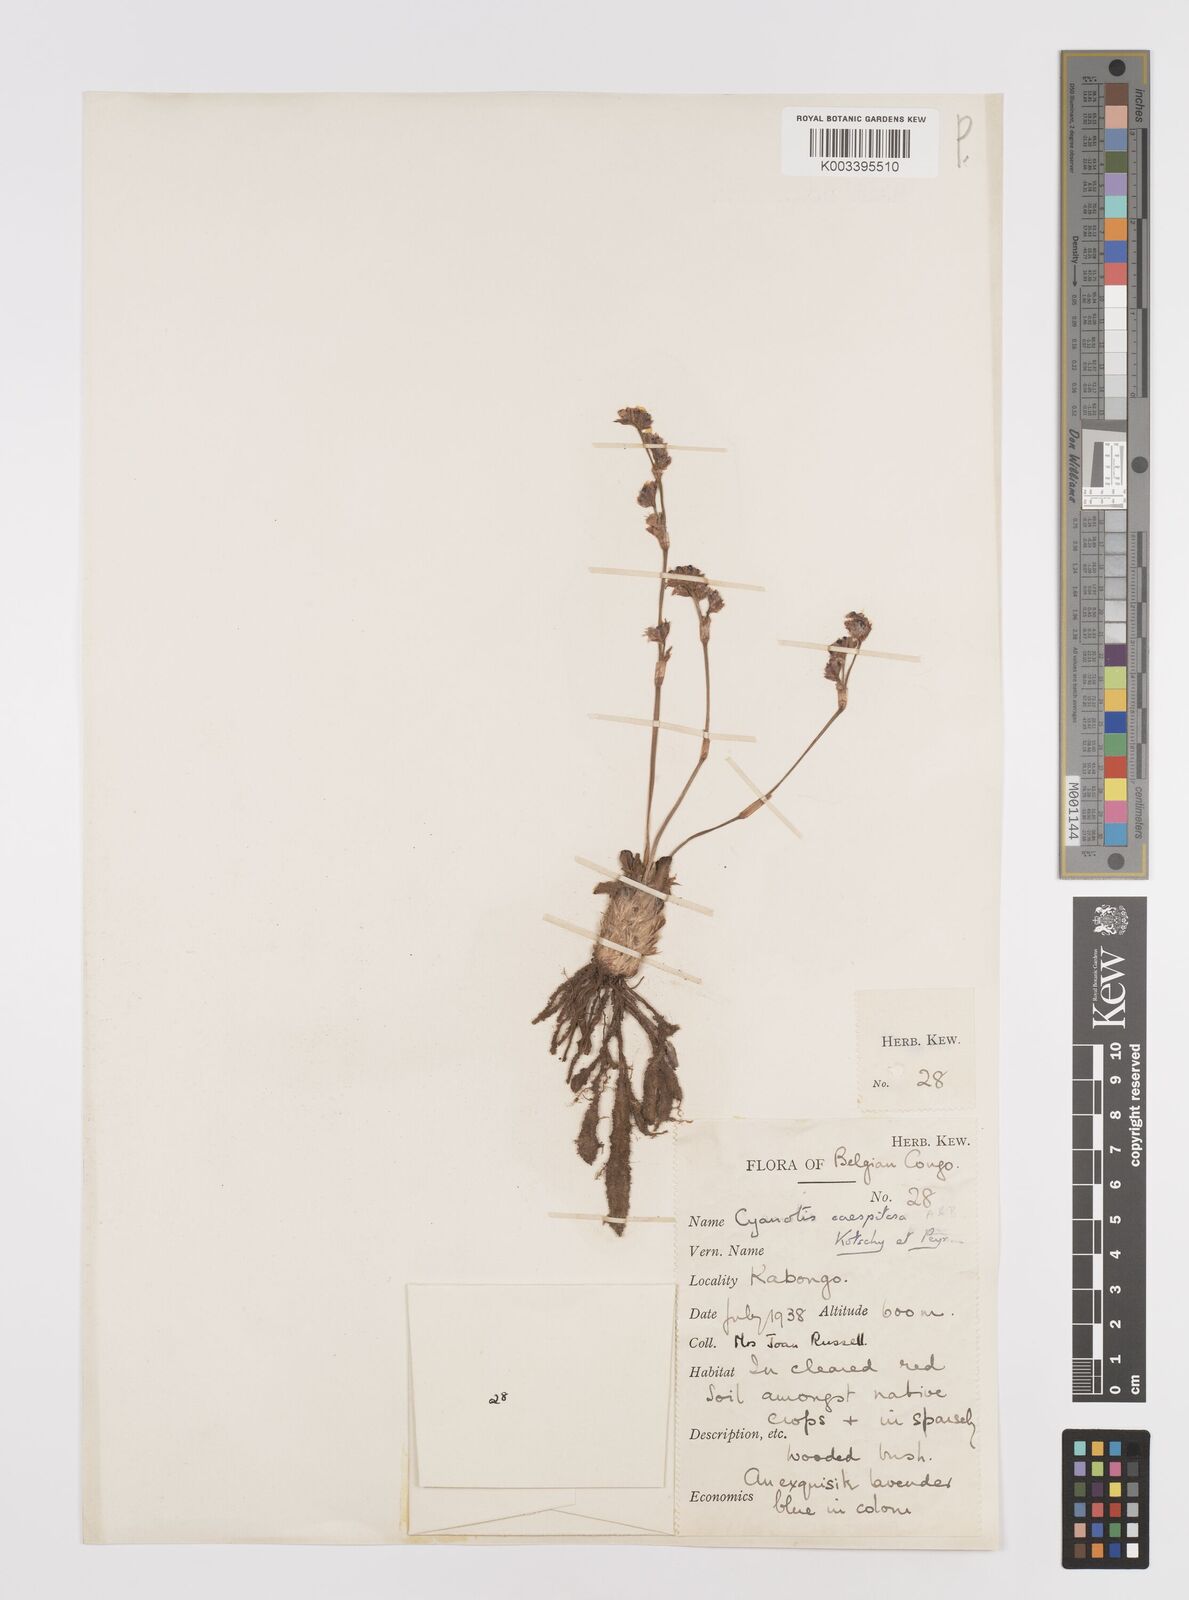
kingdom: Plantae
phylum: Tracheophyta
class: Liliopsida
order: Commelinales
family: Commelinaceae
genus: Cyanotis
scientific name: Cyanotis caespitosa
